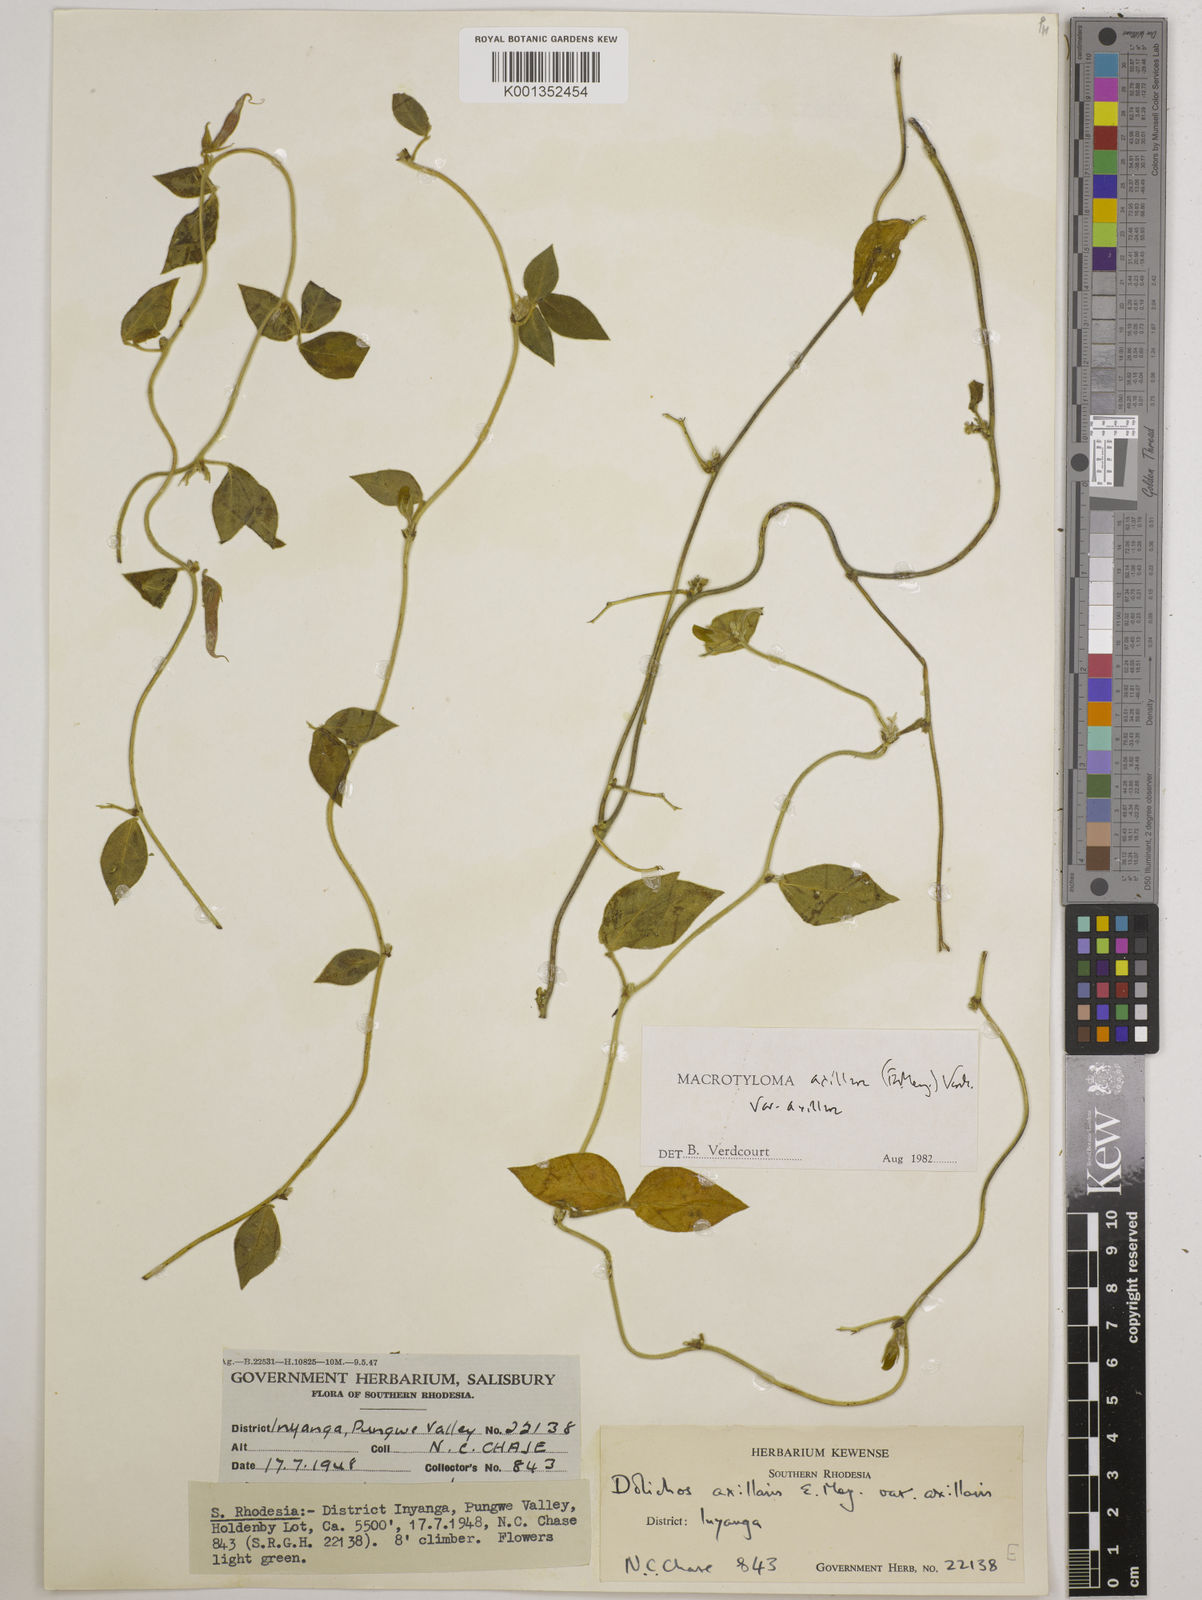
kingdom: Plantae
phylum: Tracheophyta
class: Magnoliopsida
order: Fabales
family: Fabaceae
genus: Macrotyloma
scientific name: Macrotyloma axillare
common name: Perennial horsegram
